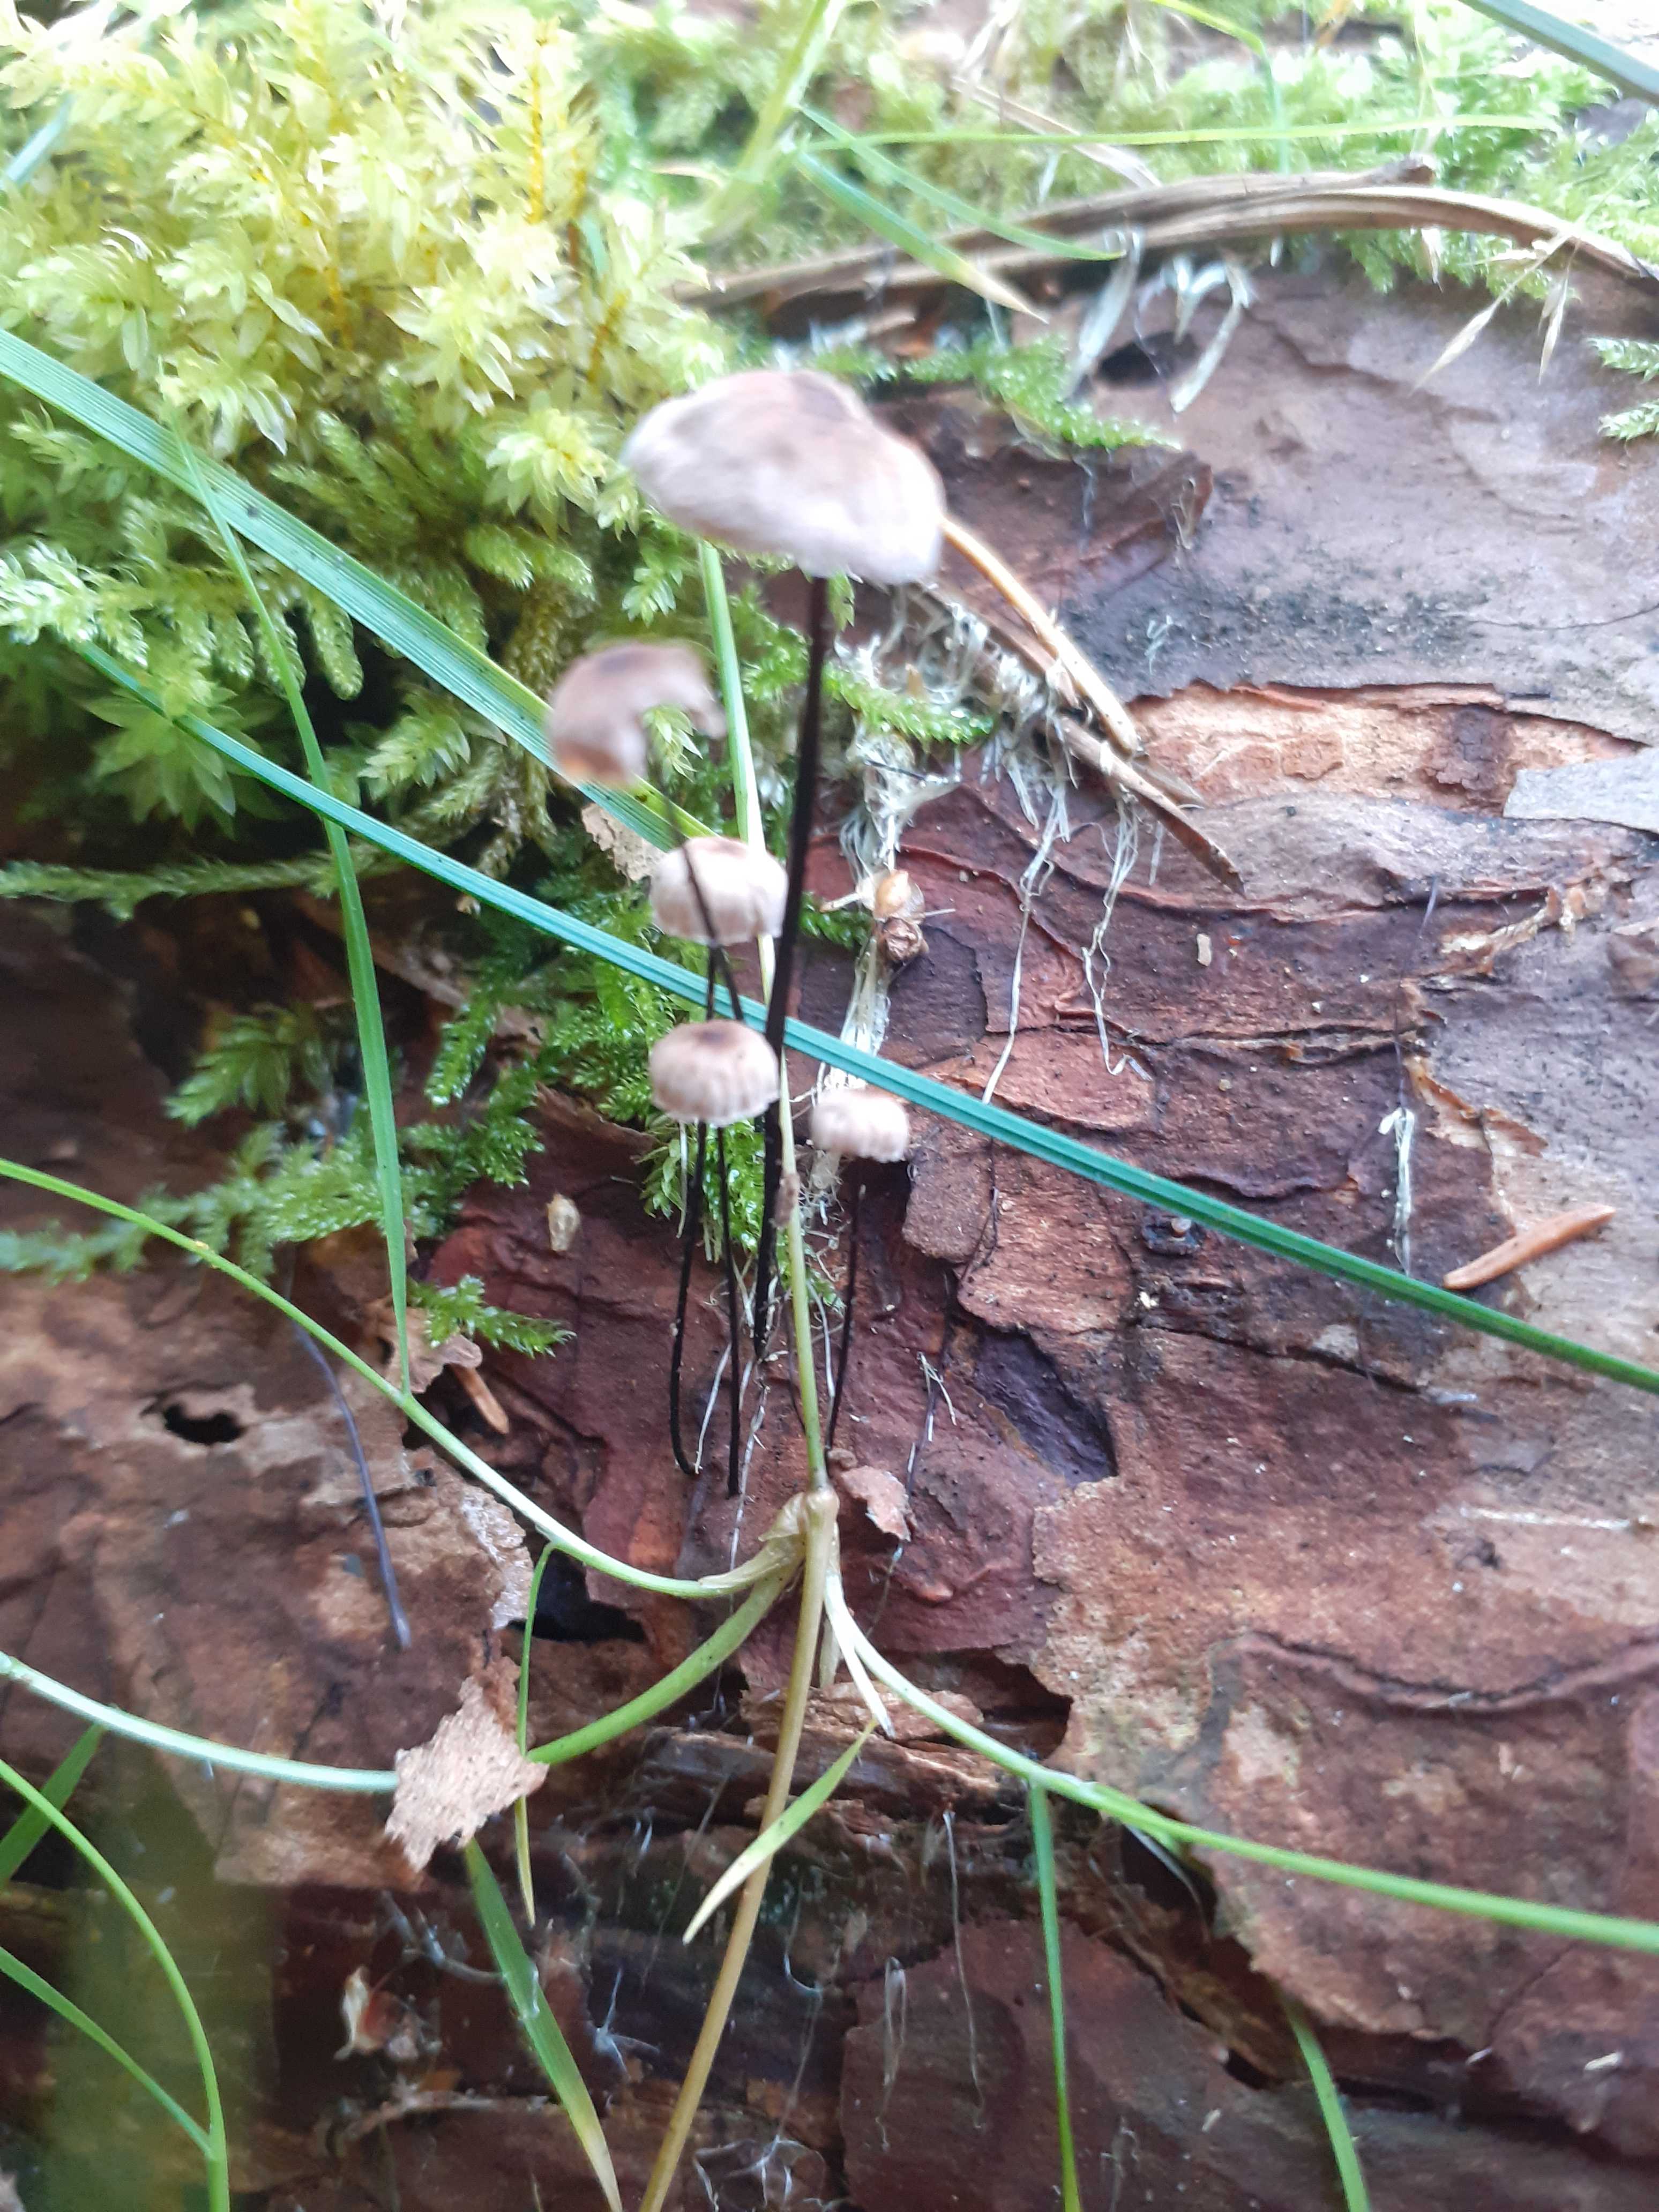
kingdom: Fungi
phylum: Basidiomycota
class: Agaricomycetes
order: Agaricales
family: Omphalotaceae
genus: Gymnopus
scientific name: Gymnopus androsaceus
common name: trådstokket fladhat
